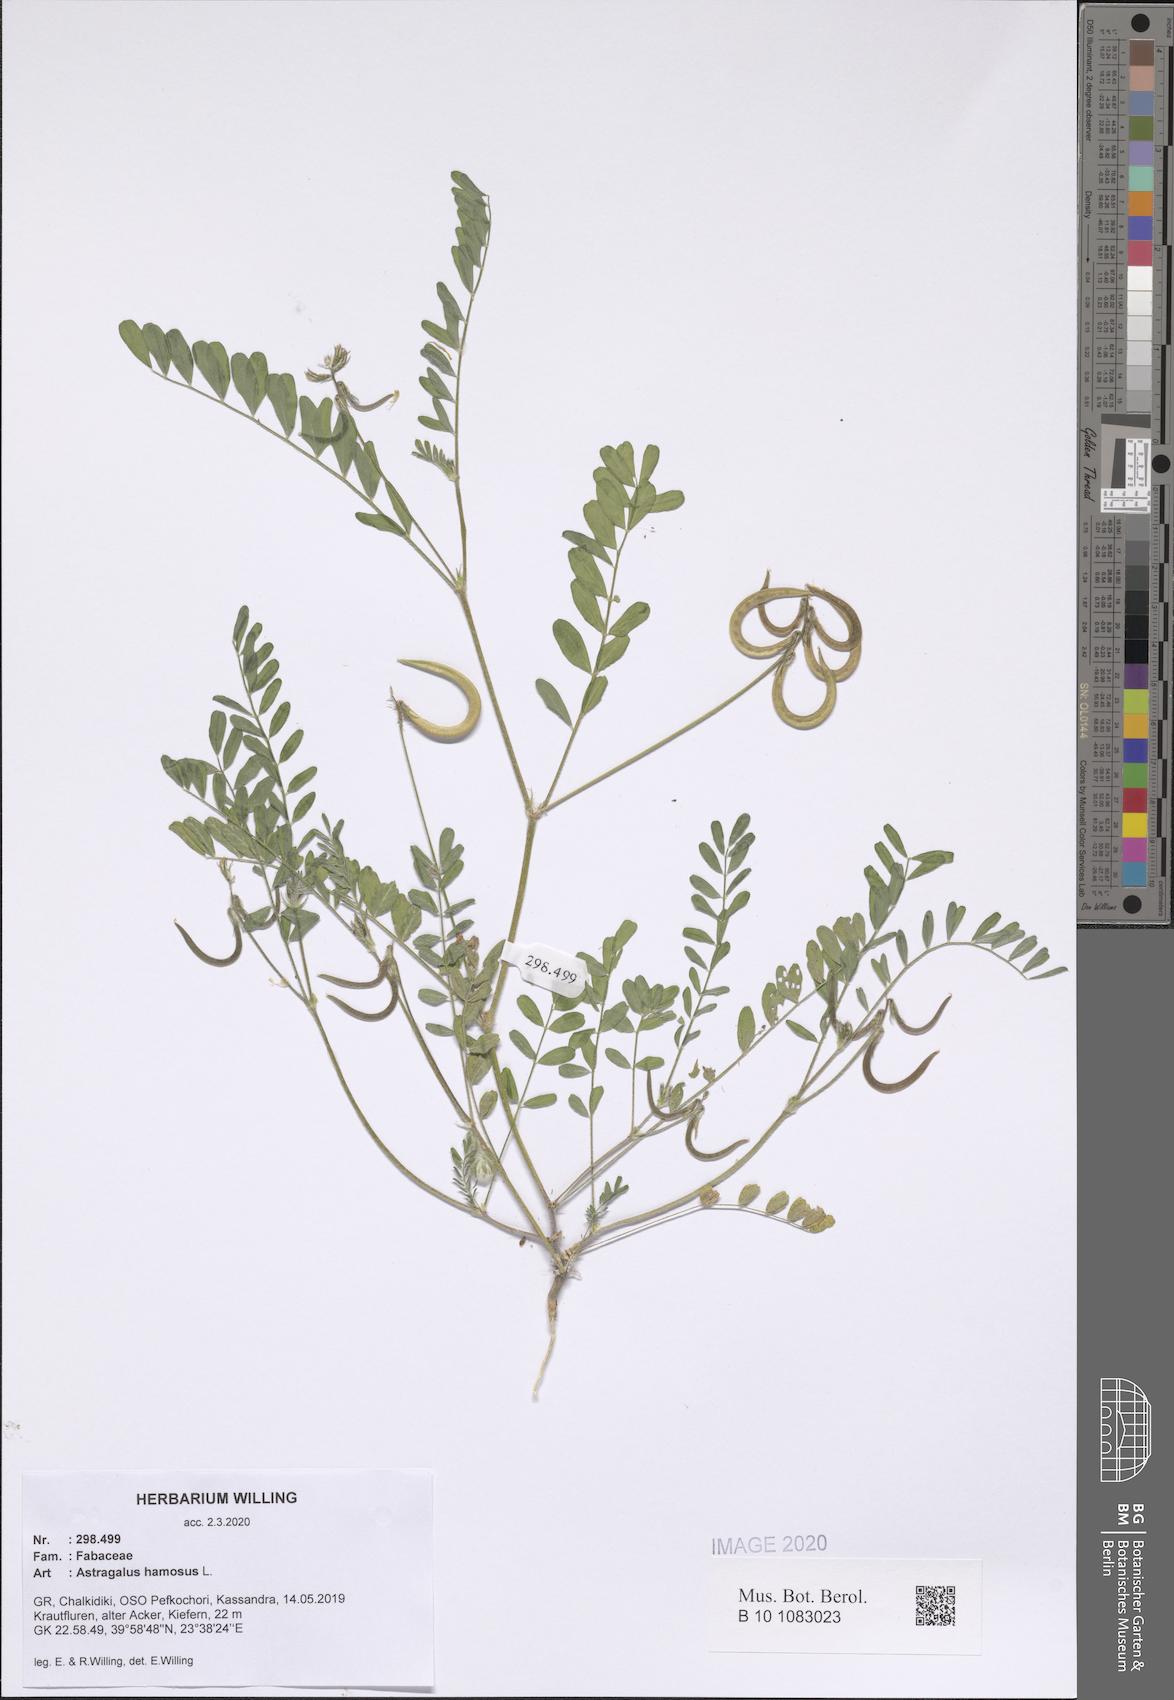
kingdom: Plantae
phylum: Tracheophyta
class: Magnoliopsida
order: Fabales
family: Fabaceae
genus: Astragalus
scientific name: Astragalus hamosus
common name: European milkvetch
